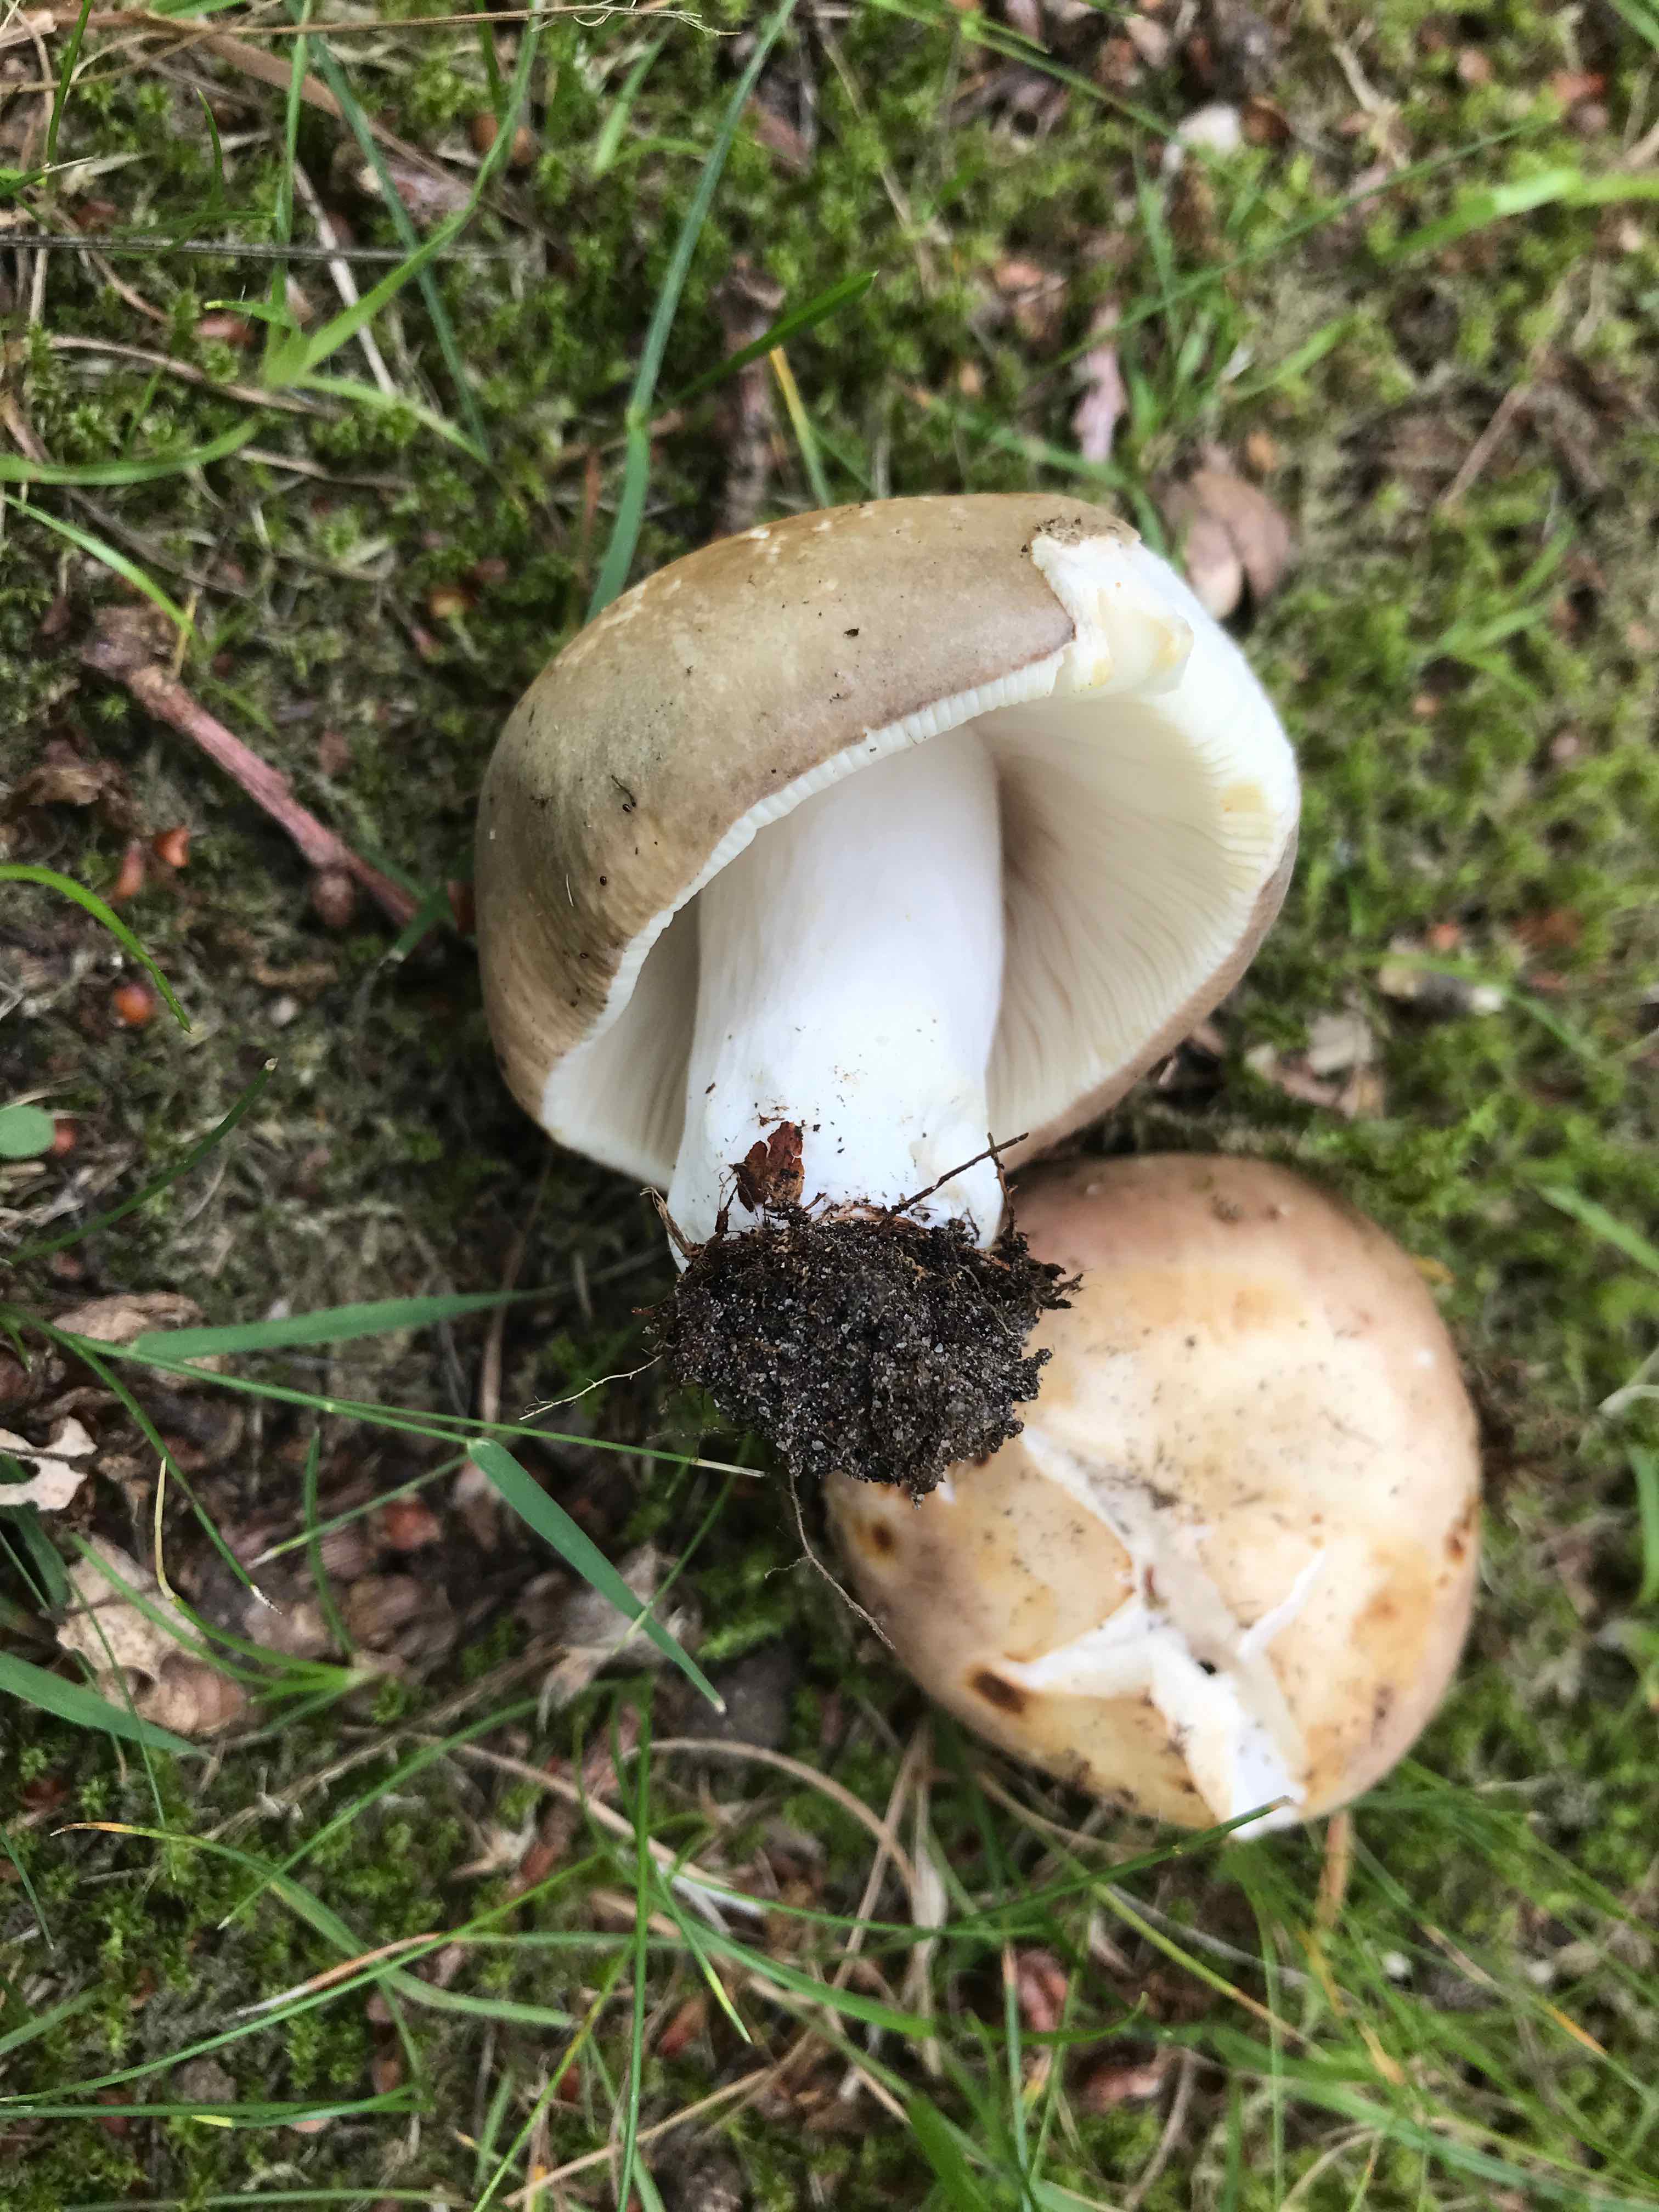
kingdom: Fungi
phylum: Basidiomycota
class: Agaricomycetes
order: Russulales
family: Russulaceae
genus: Russula
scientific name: Russula
